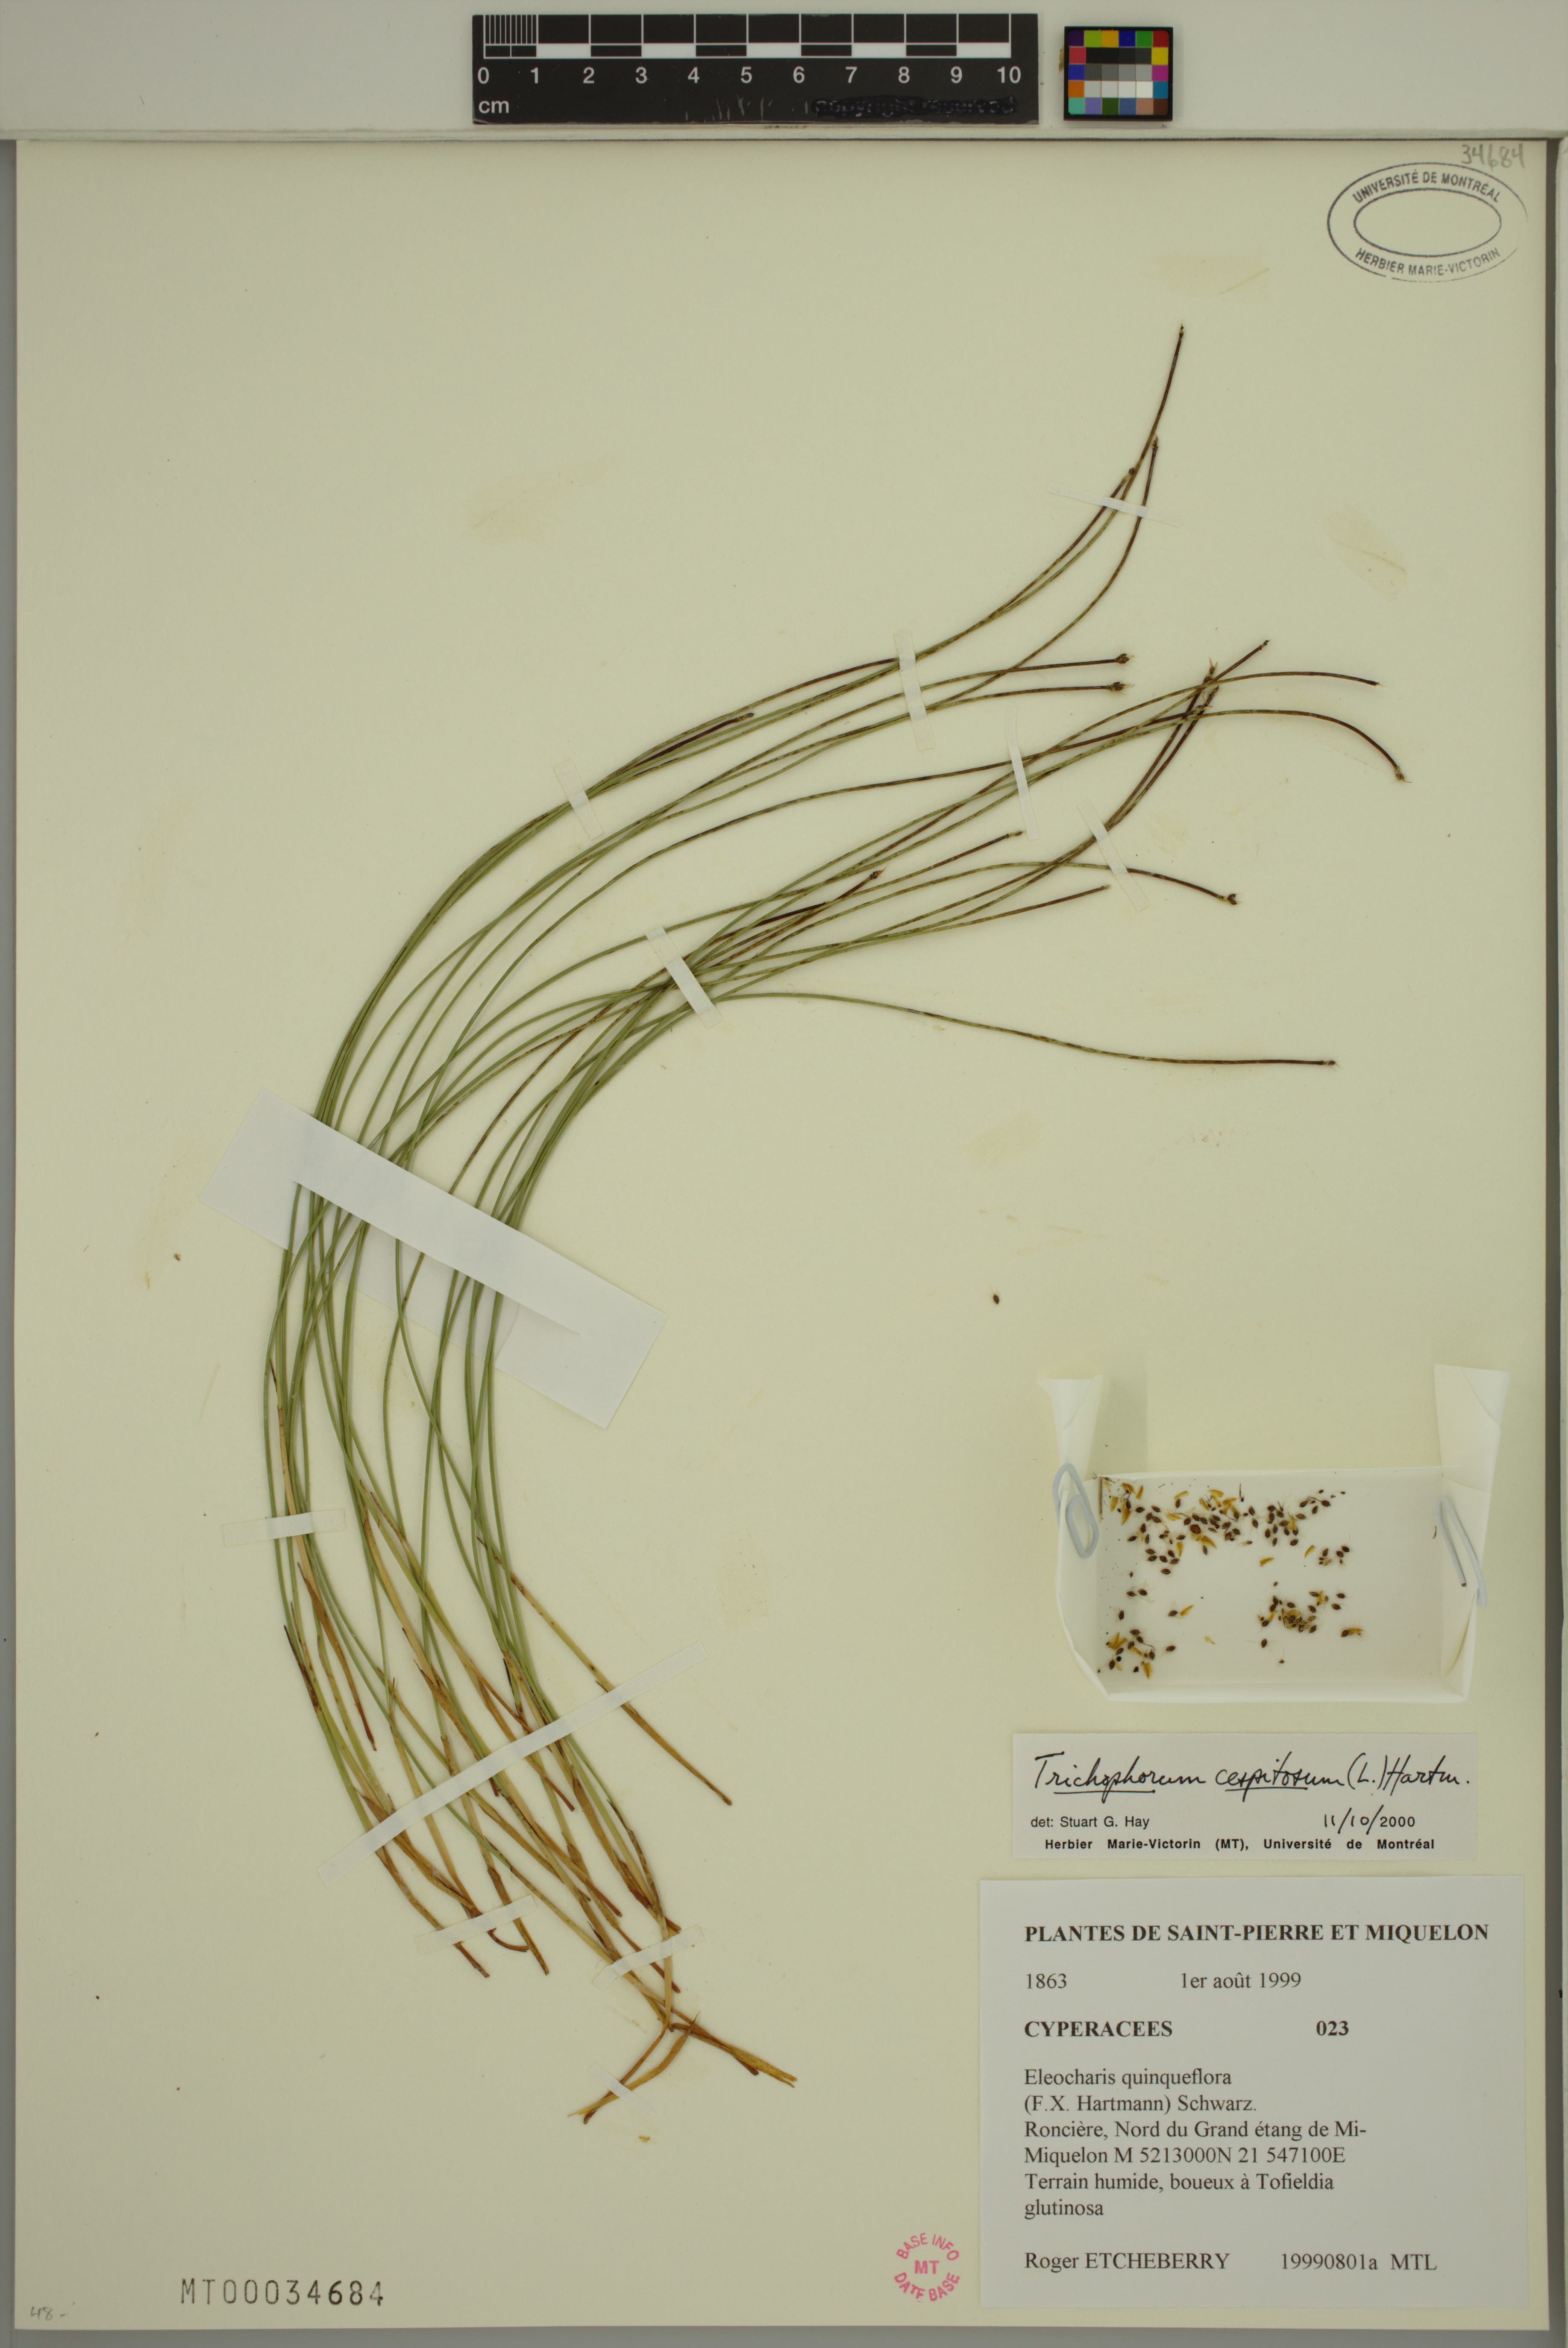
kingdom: Plantae
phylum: Tracheophyta
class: Liliopsida
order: Poales
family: Cyperaceae
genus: Trichophorum
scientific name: Trichophorum cespitosum
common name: Cespitose bulrush
